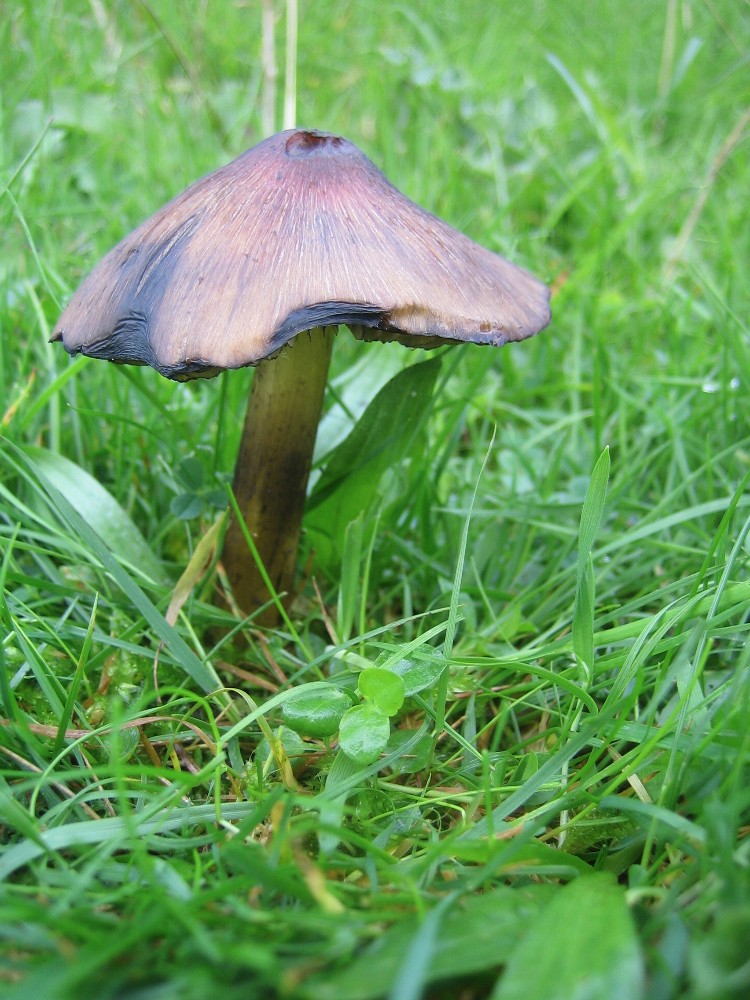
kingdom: Fungi
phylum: Basidiomycota
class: Agaricomycetes
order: Agaricales
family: Hygrophoraceae
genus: Hygrocybe
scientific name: Hygrocybe conica
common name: kegle-vokshat
